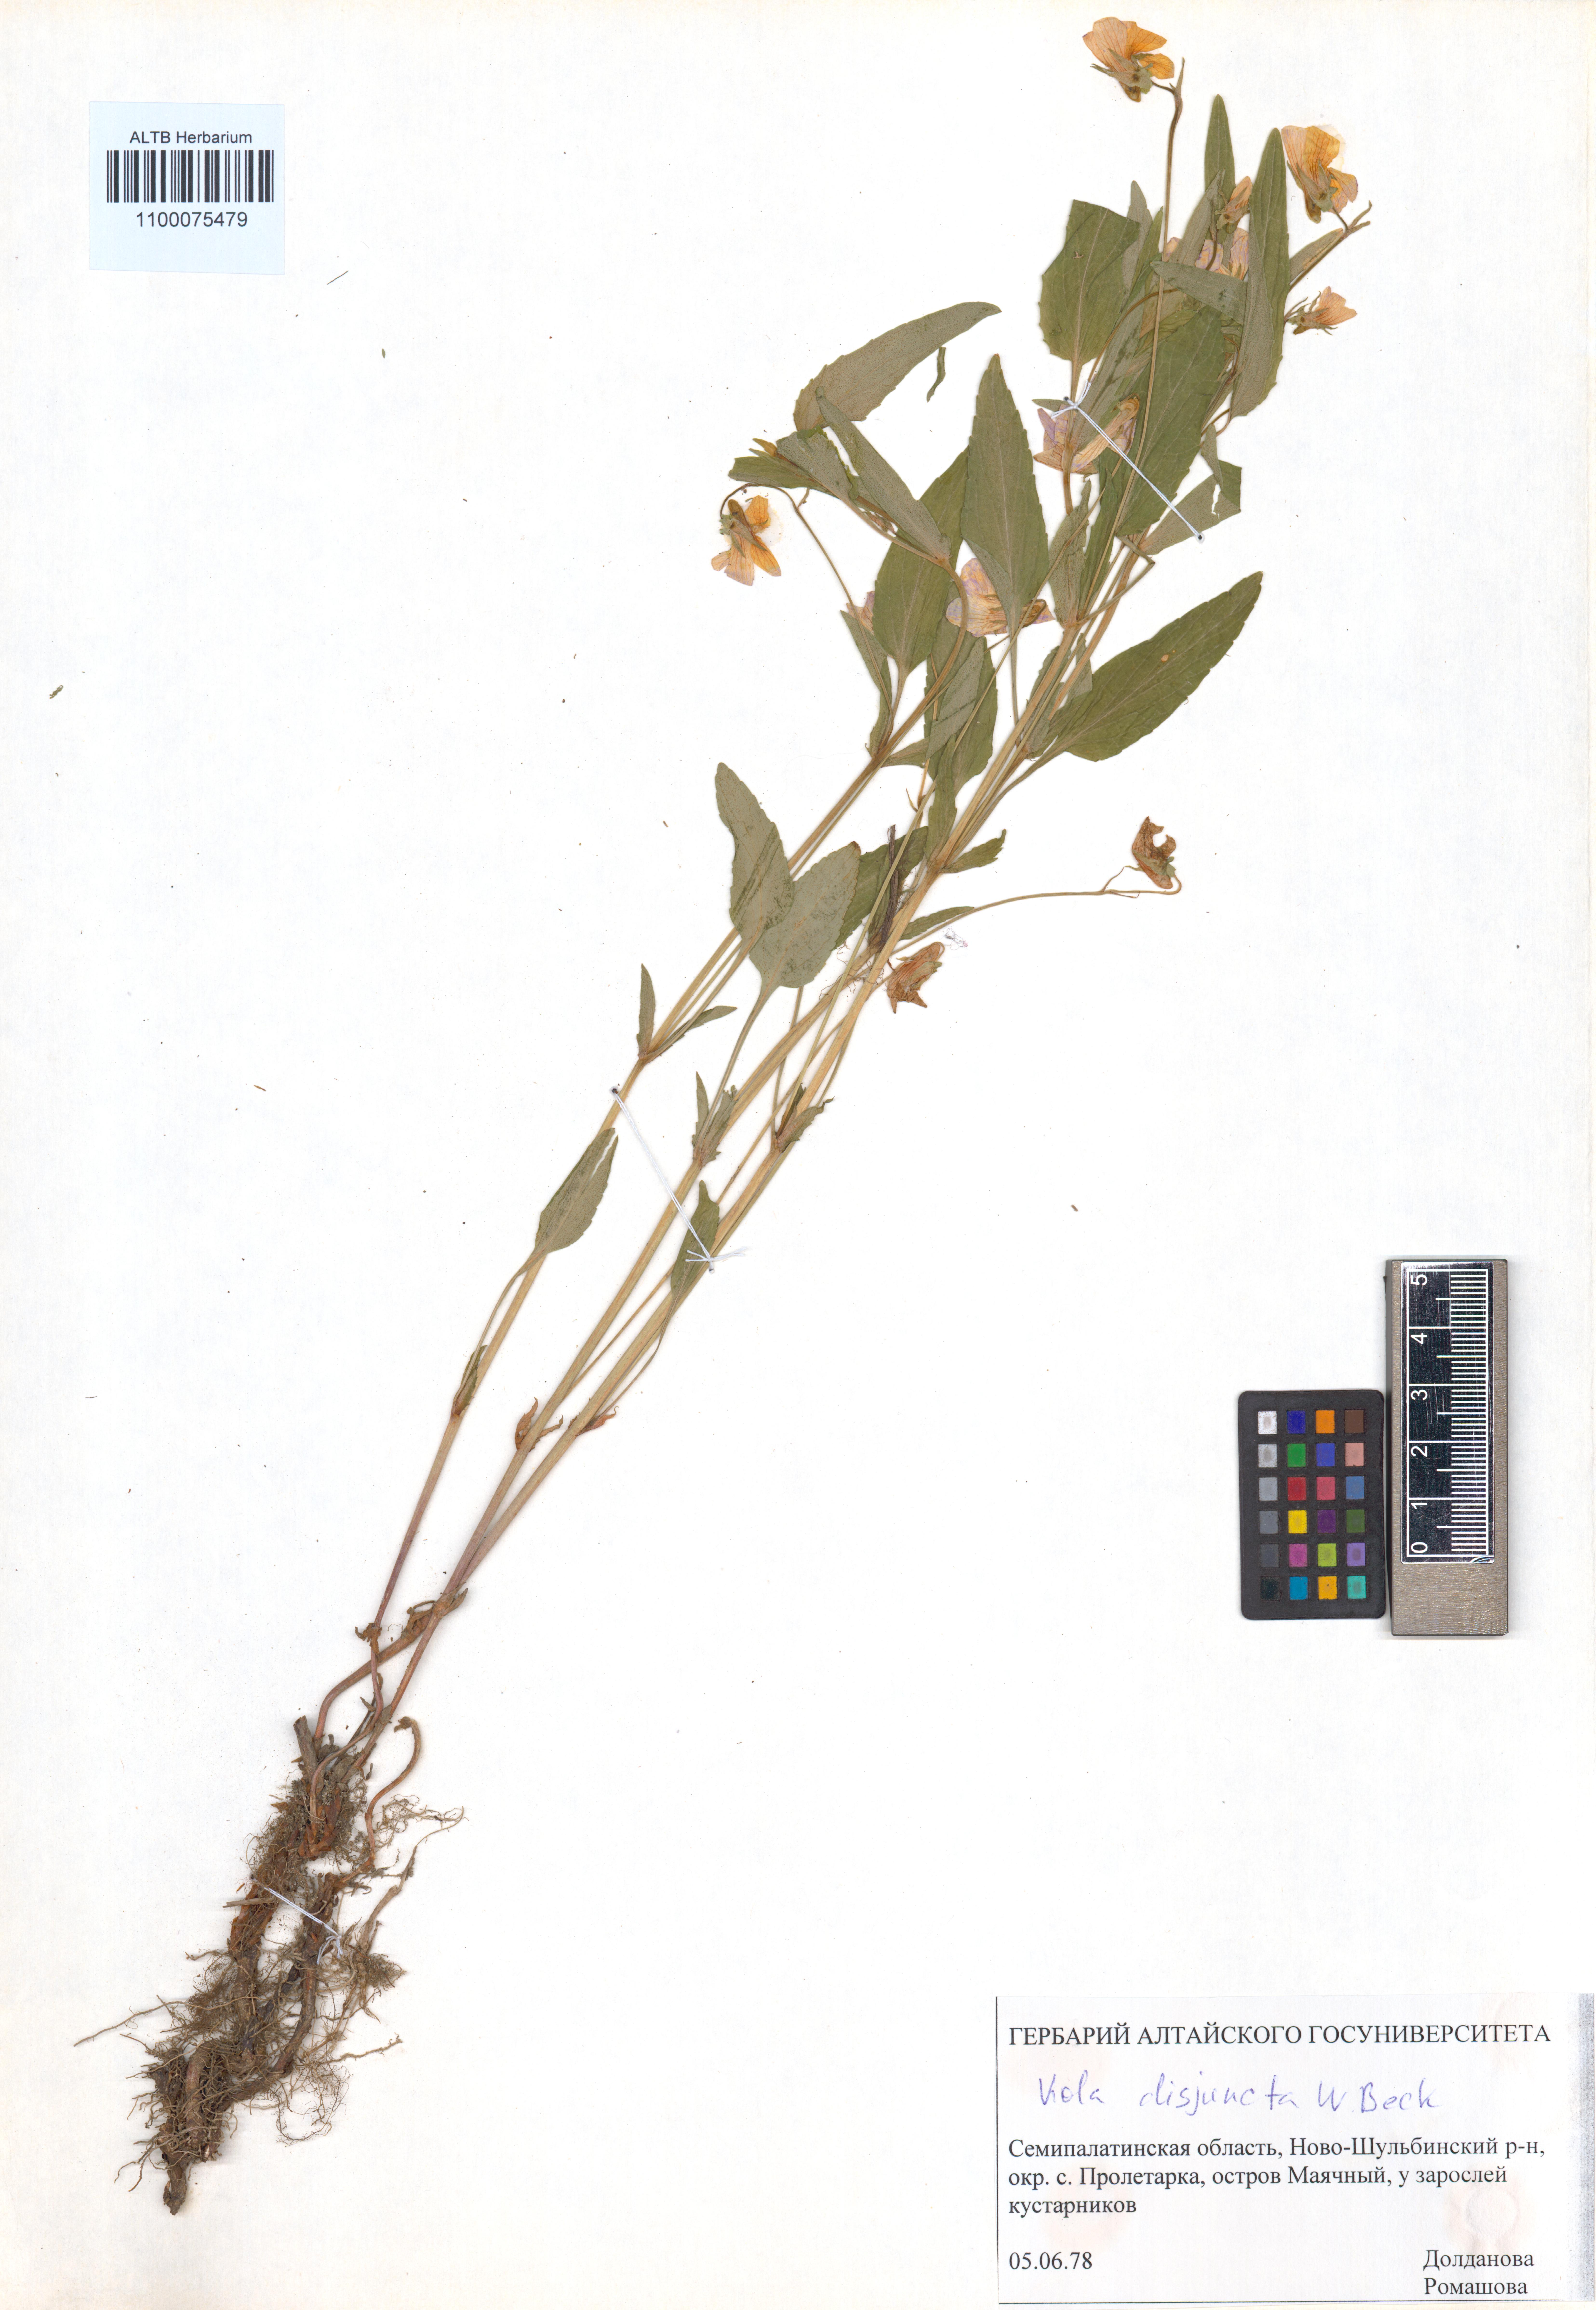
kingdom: Plantae
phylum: Tracheophyta
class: Magnoliopsida
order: Malpighiales
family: Violaceae
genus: Viola
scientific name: Viola tricolor
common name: Pansy
